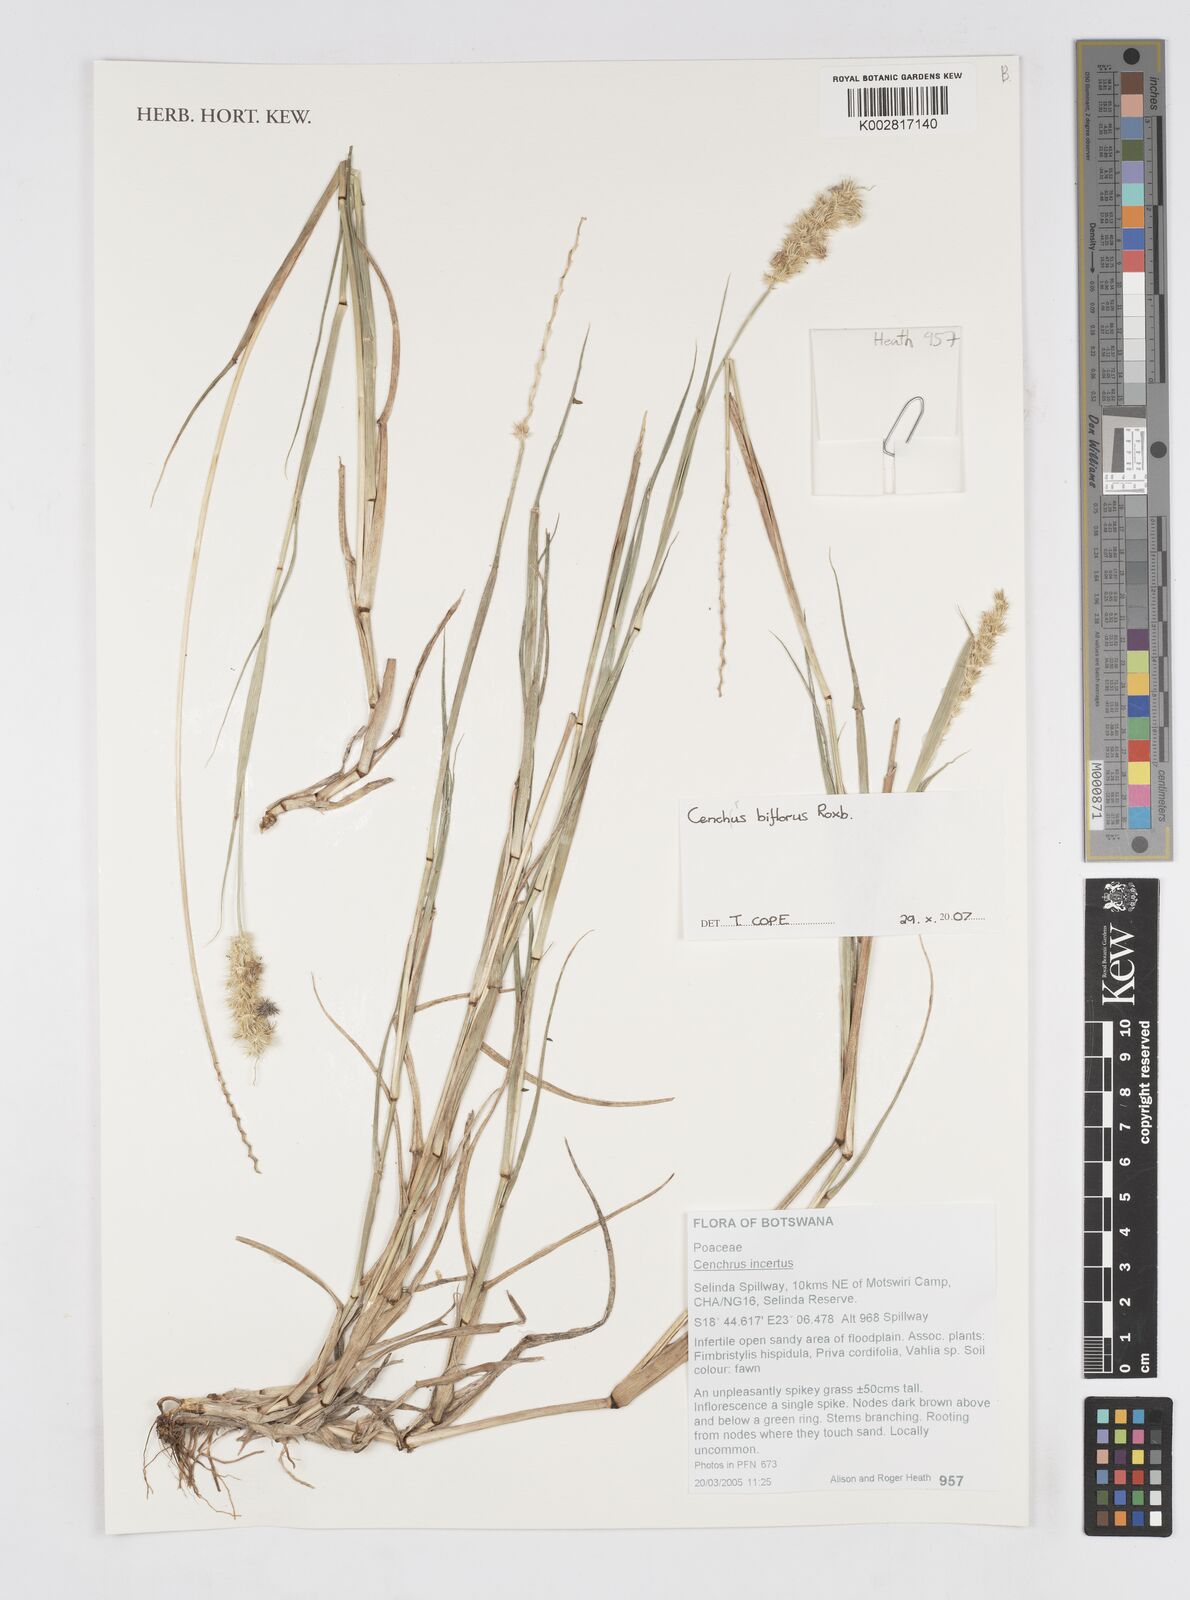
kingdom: Plantae
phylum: Tracheophyta
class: Liliopsida
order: Poales
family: Poaceae
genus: Cenchrus
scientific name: Cenchrus biflorus
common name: Indian sandbur
